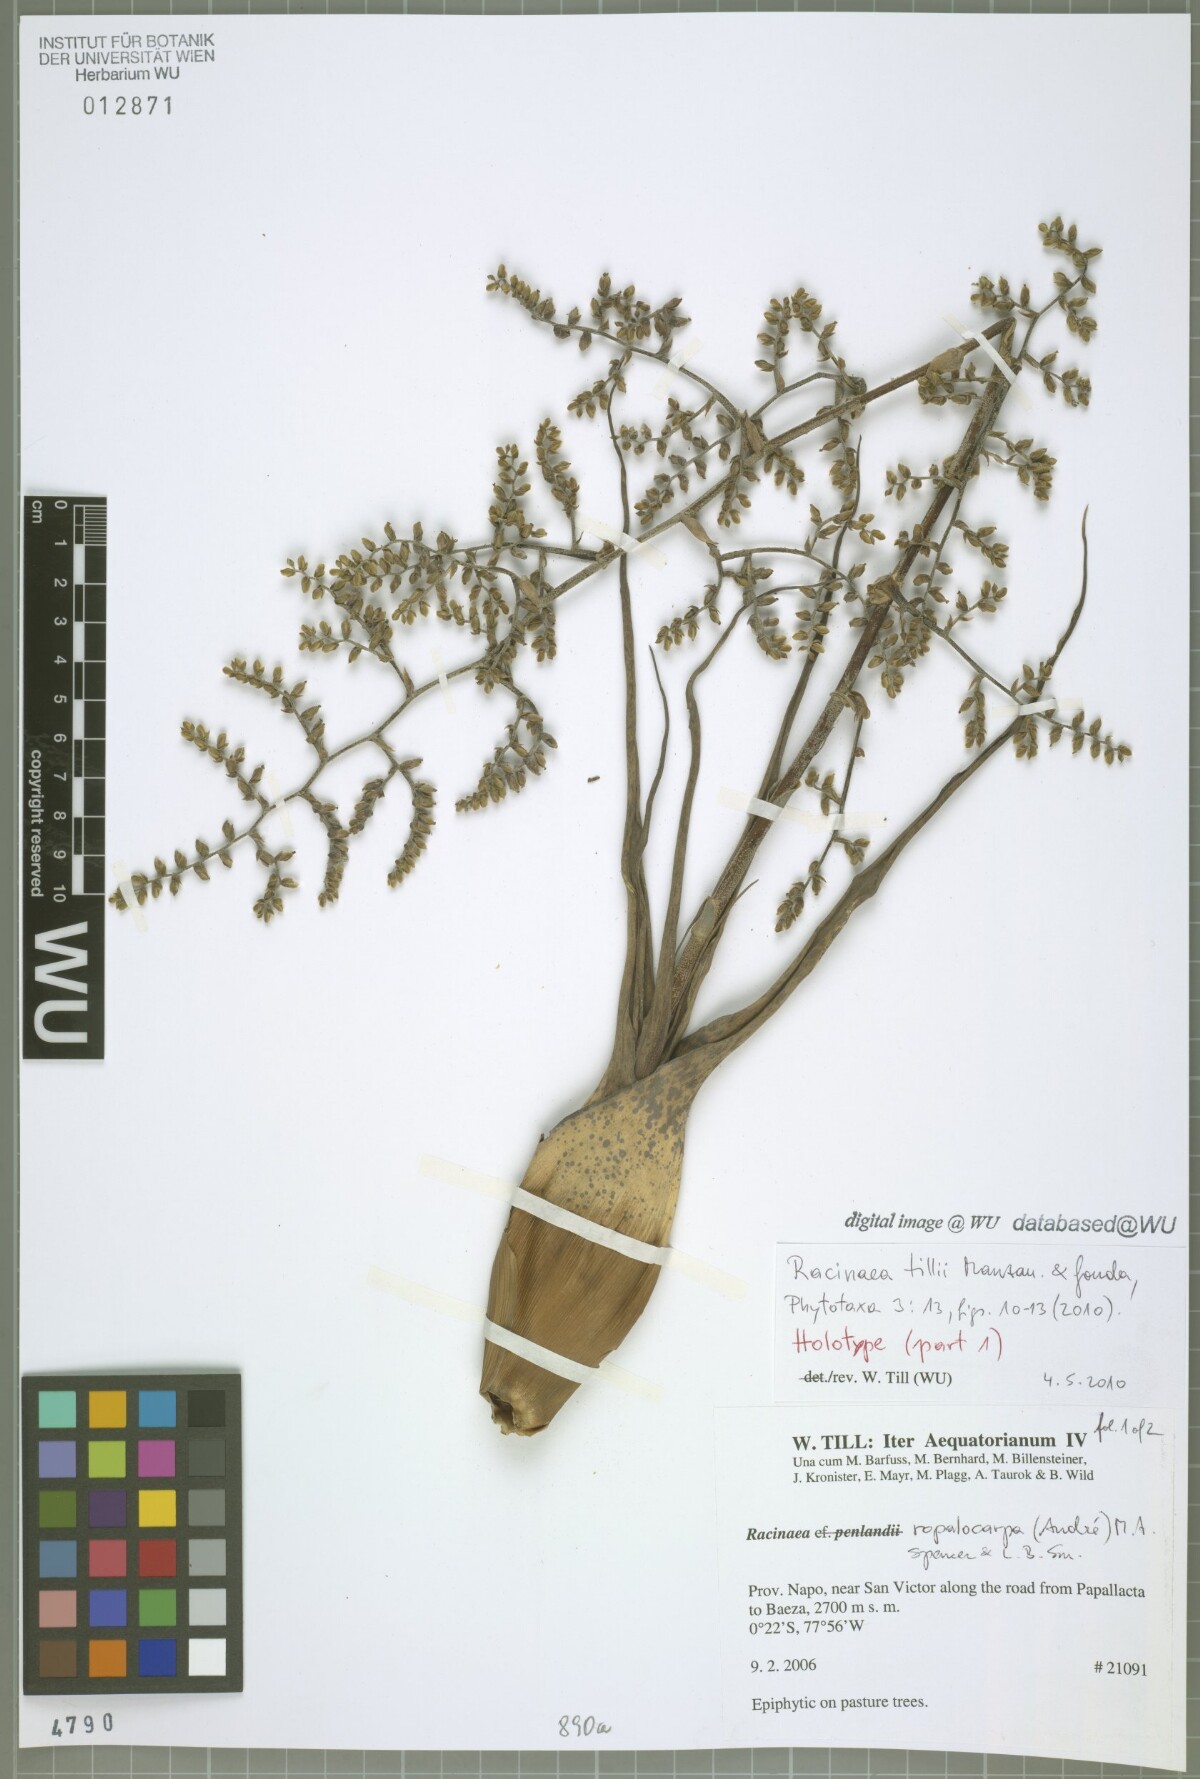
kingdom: Plantae
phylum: Tracheophyta
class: Liliopsida
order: Poales
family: Bromeliaceae
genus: Racinaea
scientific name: Racinaea tillii
